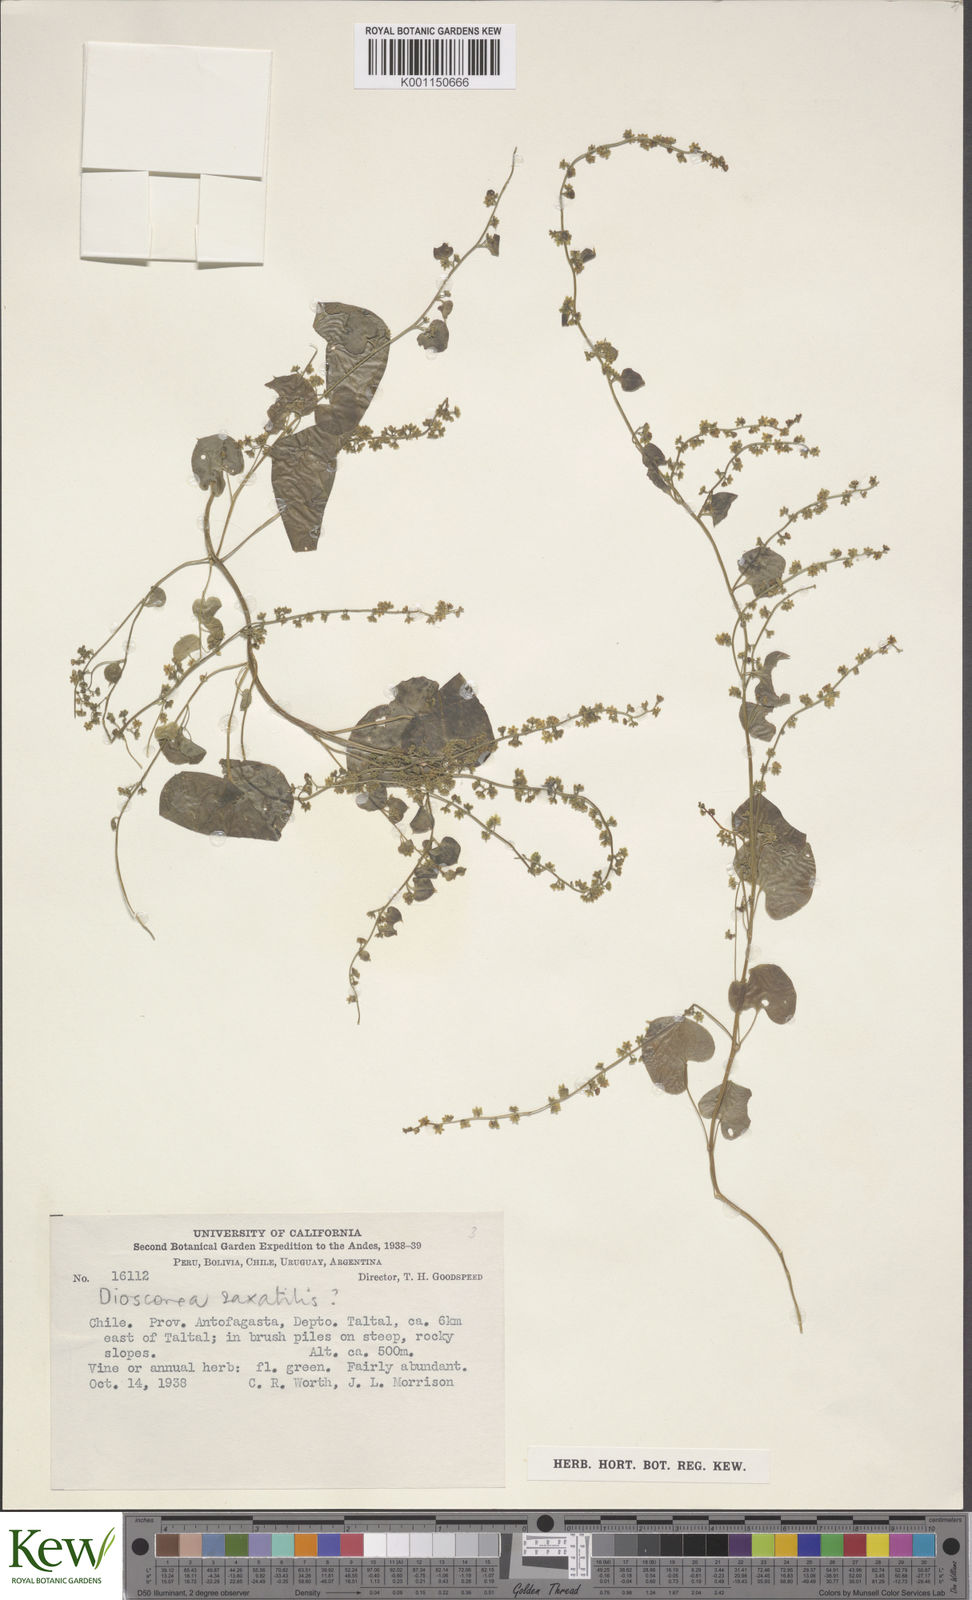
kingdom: Plantae
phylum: Tracheophyta
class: Liliopsida
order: Dioscoreales
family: Dioscoreaceae
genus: Dioscorea
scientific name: Dioscorea obtusifolia
